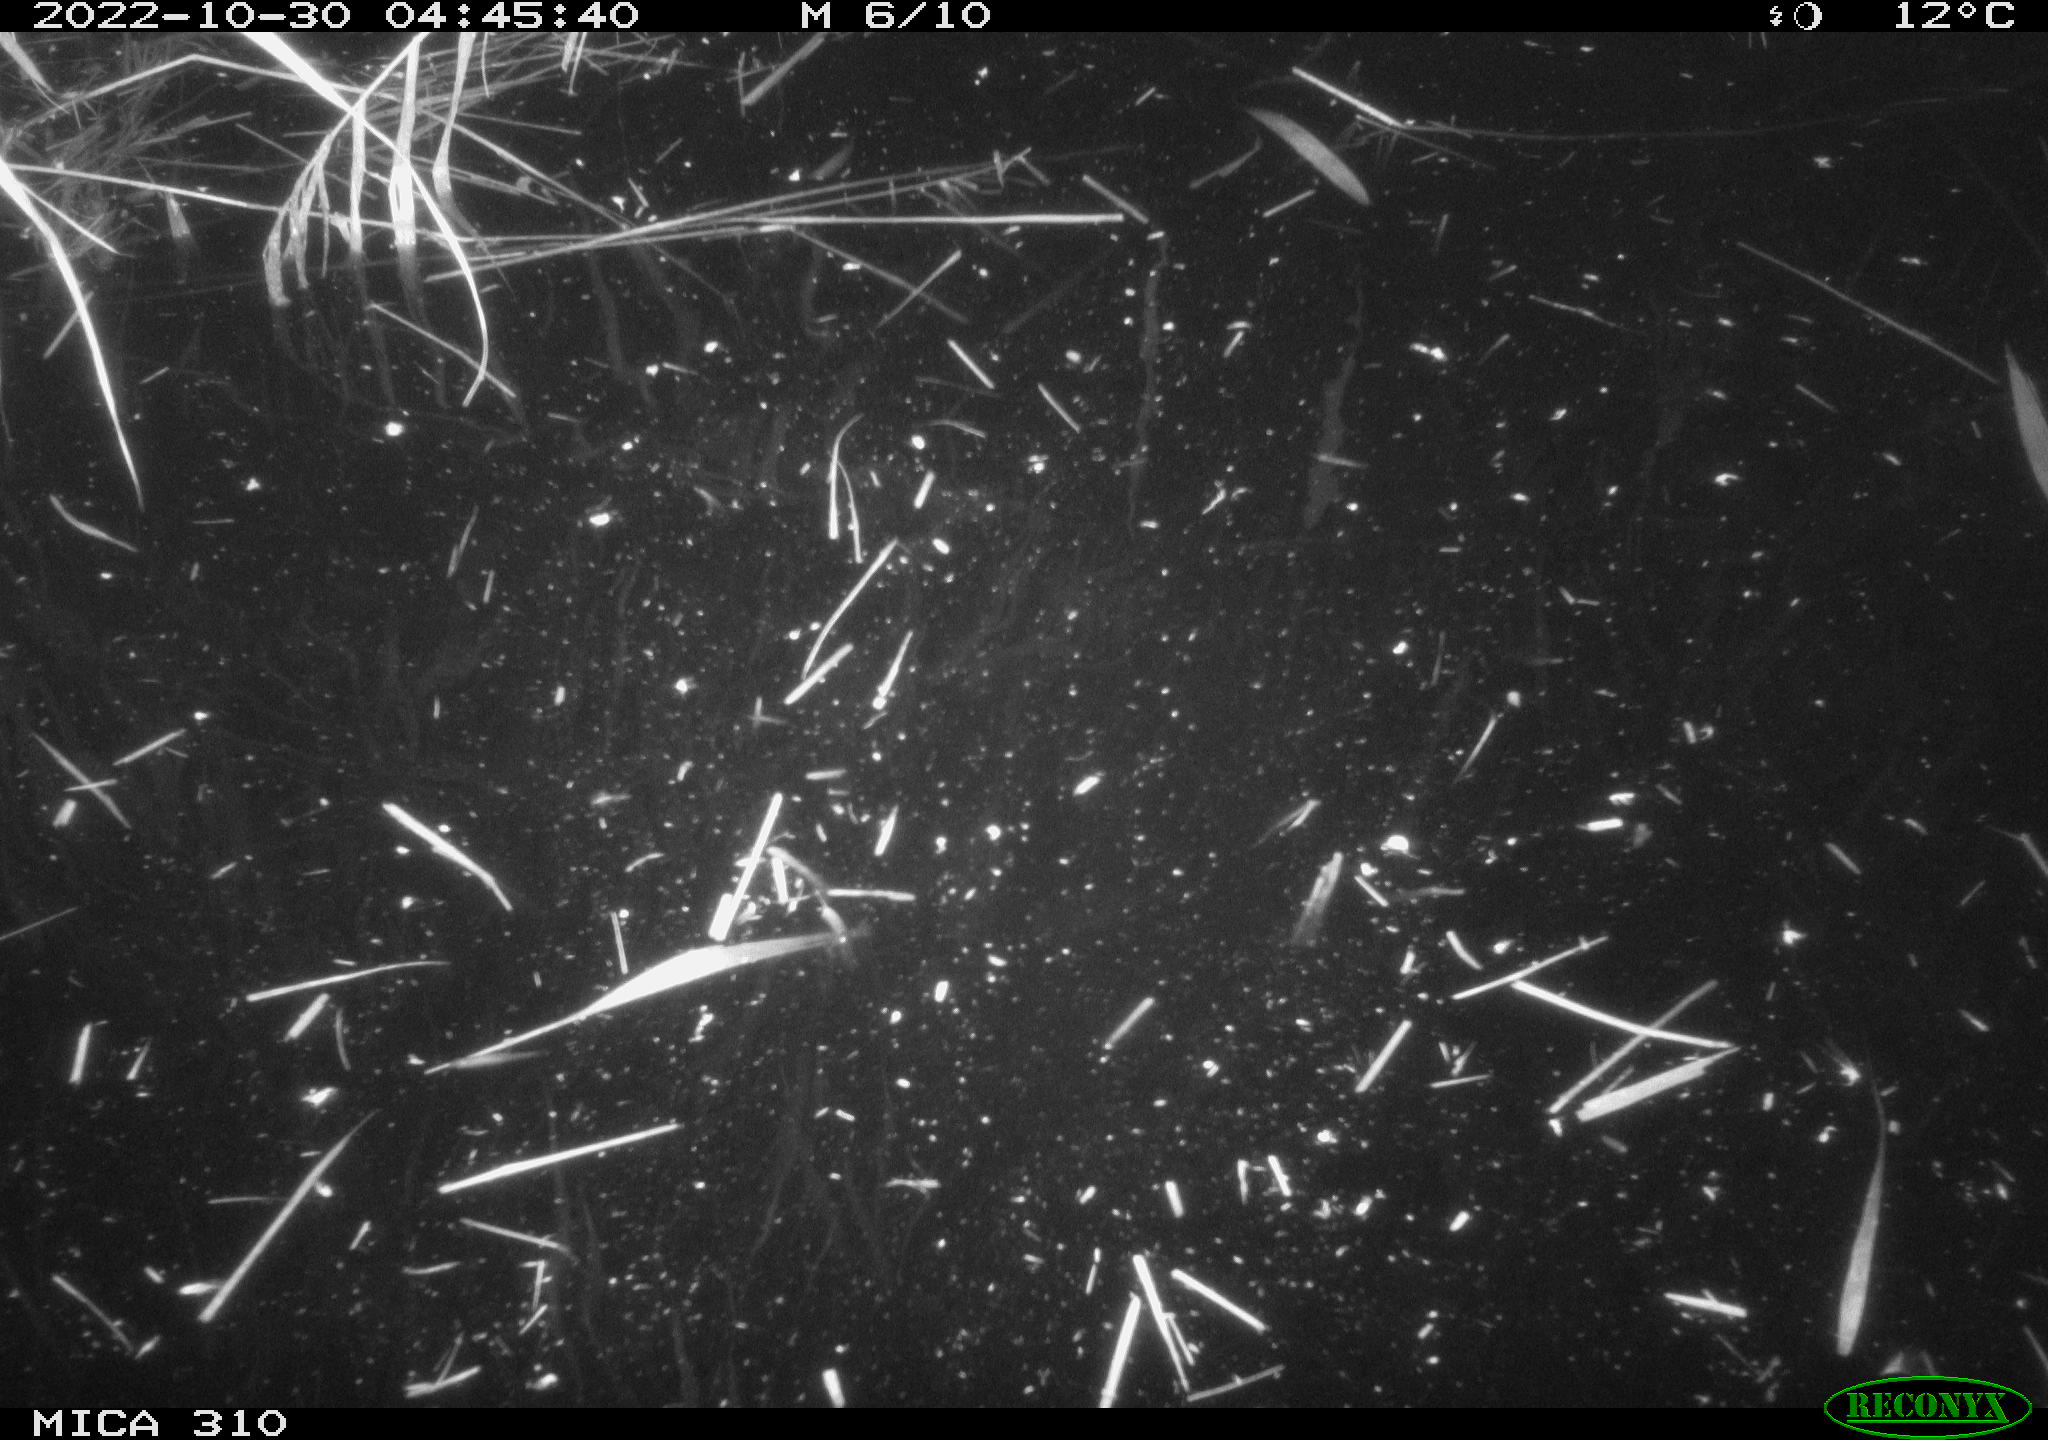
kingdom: Animalia
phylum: Chordata
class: Mammalia
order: Rodentia
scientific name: Rodentia
